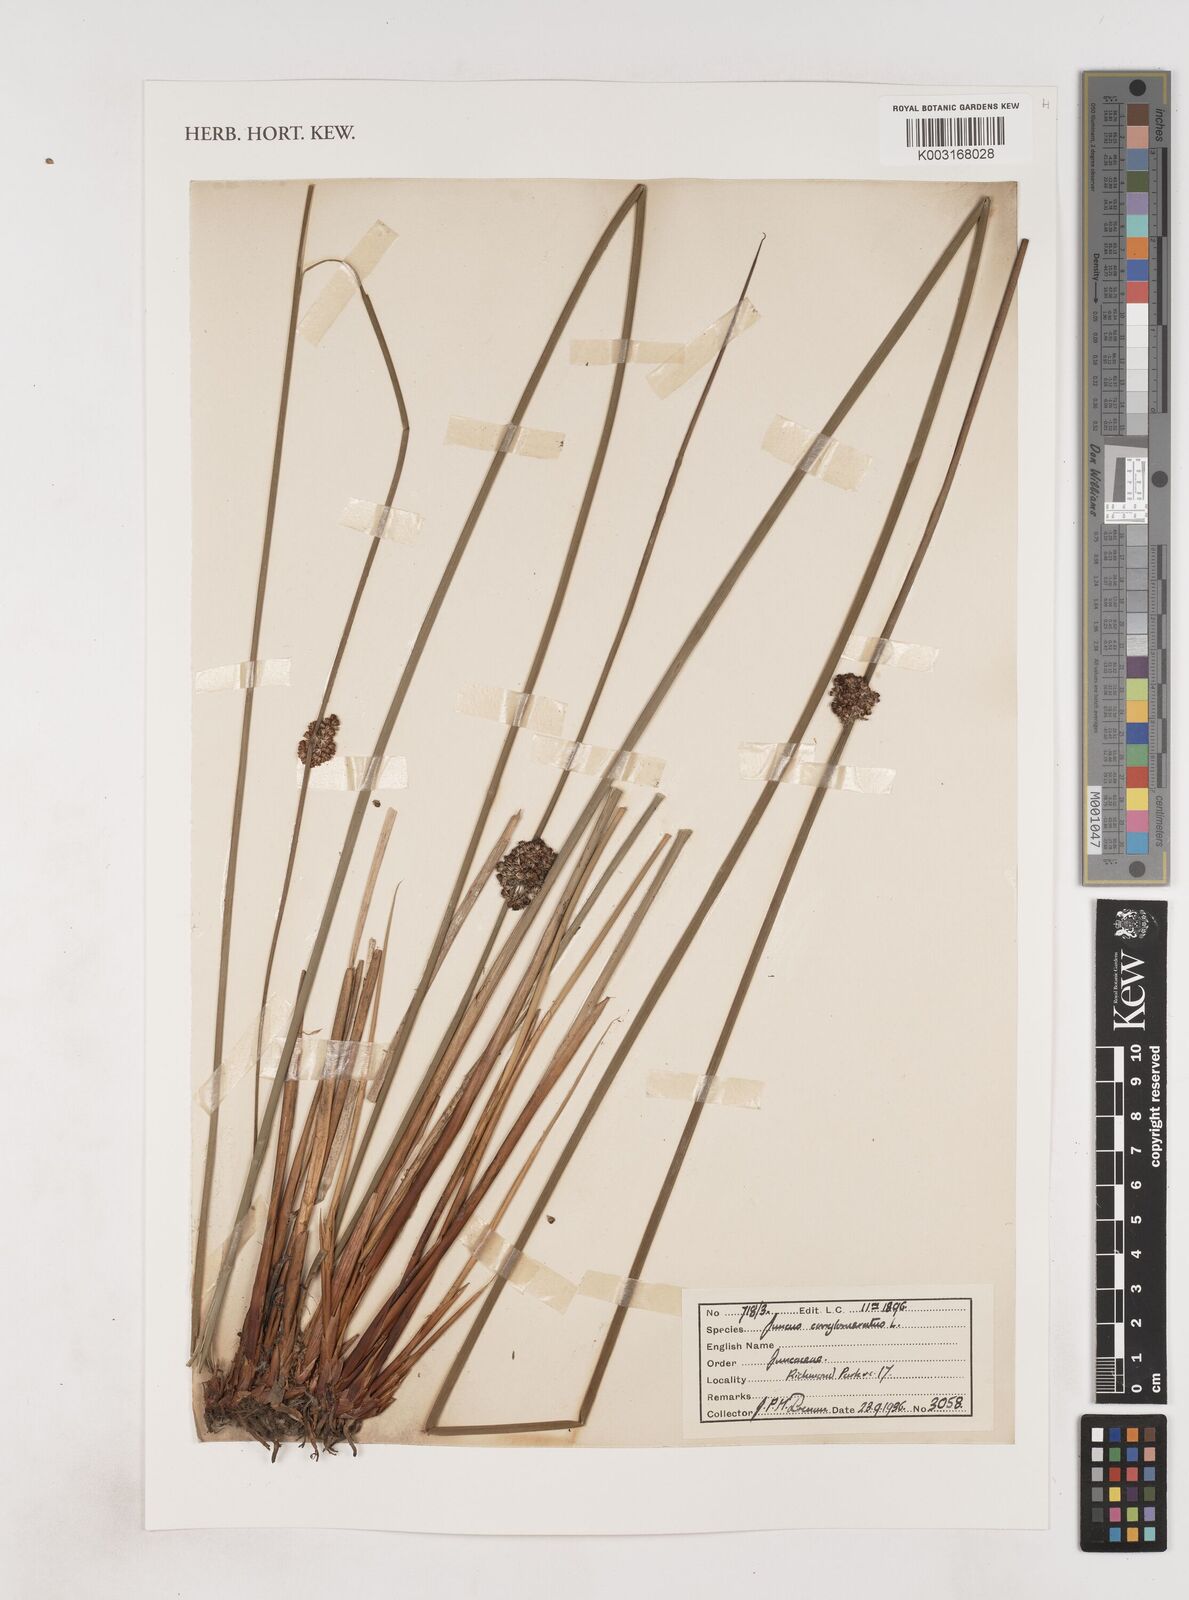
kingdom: Plantae
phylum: Tracheophyta
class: Liliopsida
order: Poales
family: Juncaceae
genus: Juncus
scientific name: Juncus conglomeratus
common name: Compact rush
